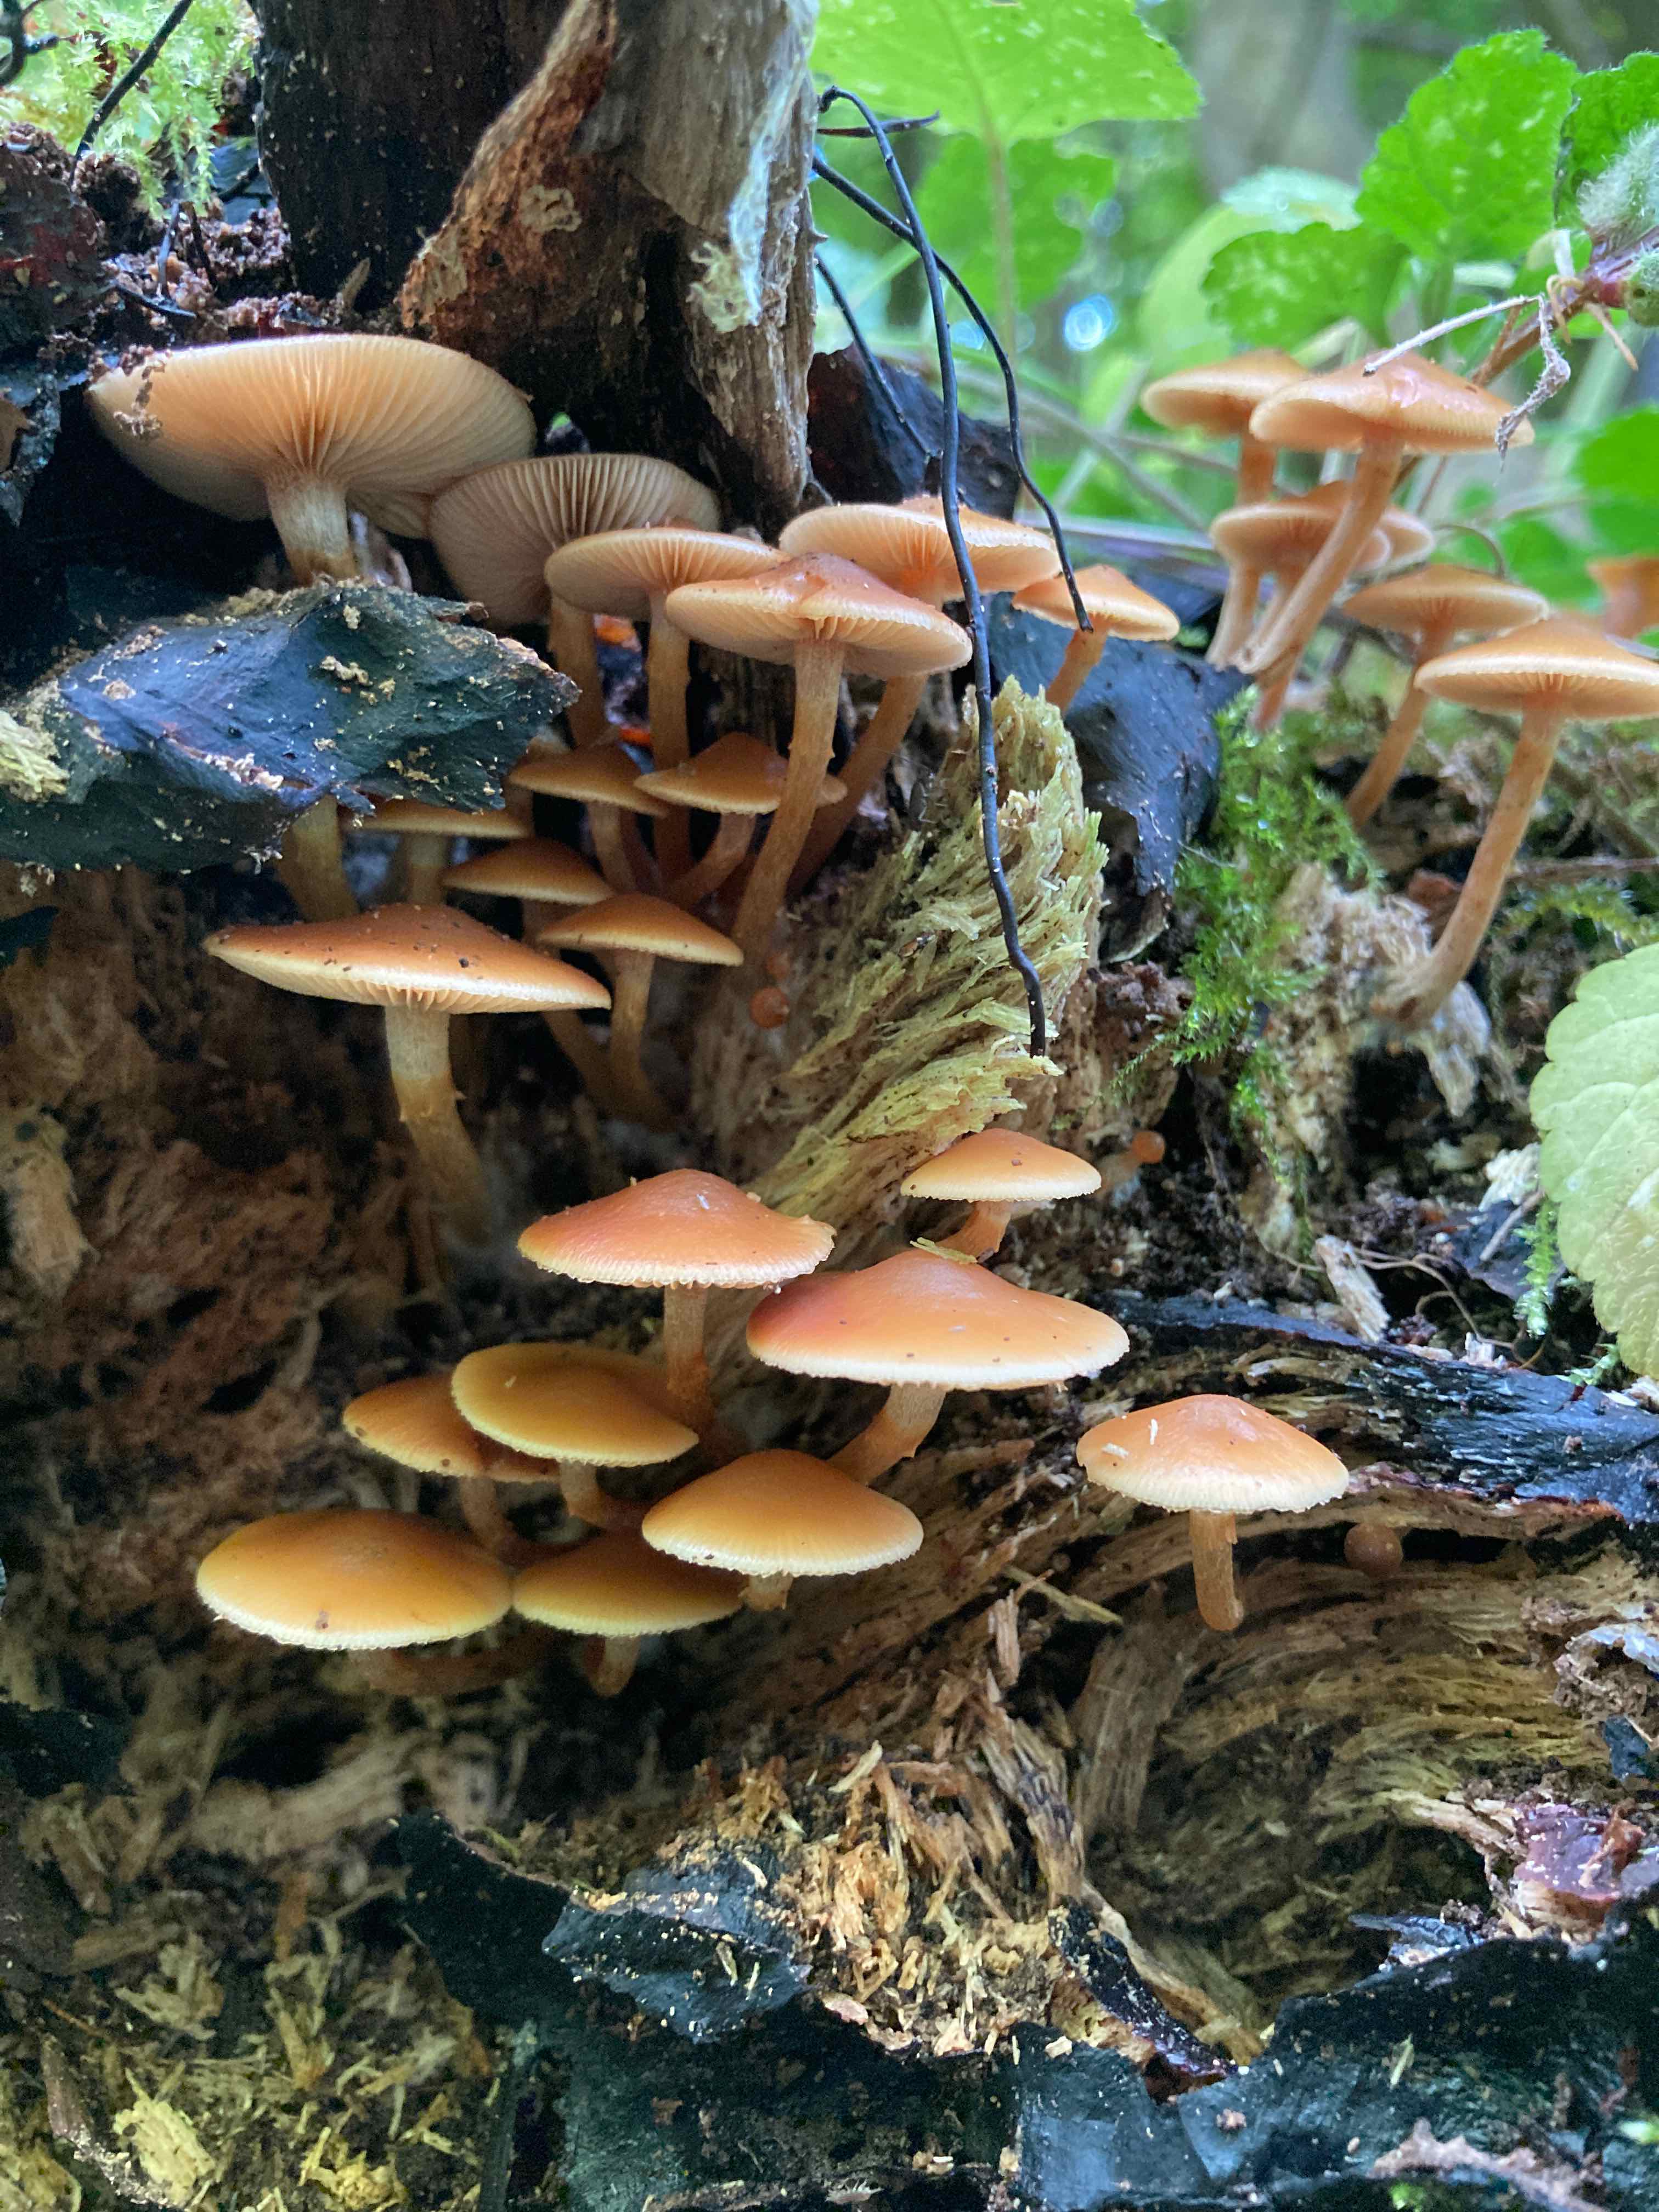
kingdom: Fungi
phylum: Basidiomycota
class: Agaricomycetes
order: Agaricales
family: Hymenogastraceae
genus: Galerina
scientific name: Galerina marginata
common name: randbæltet hjelmhat
